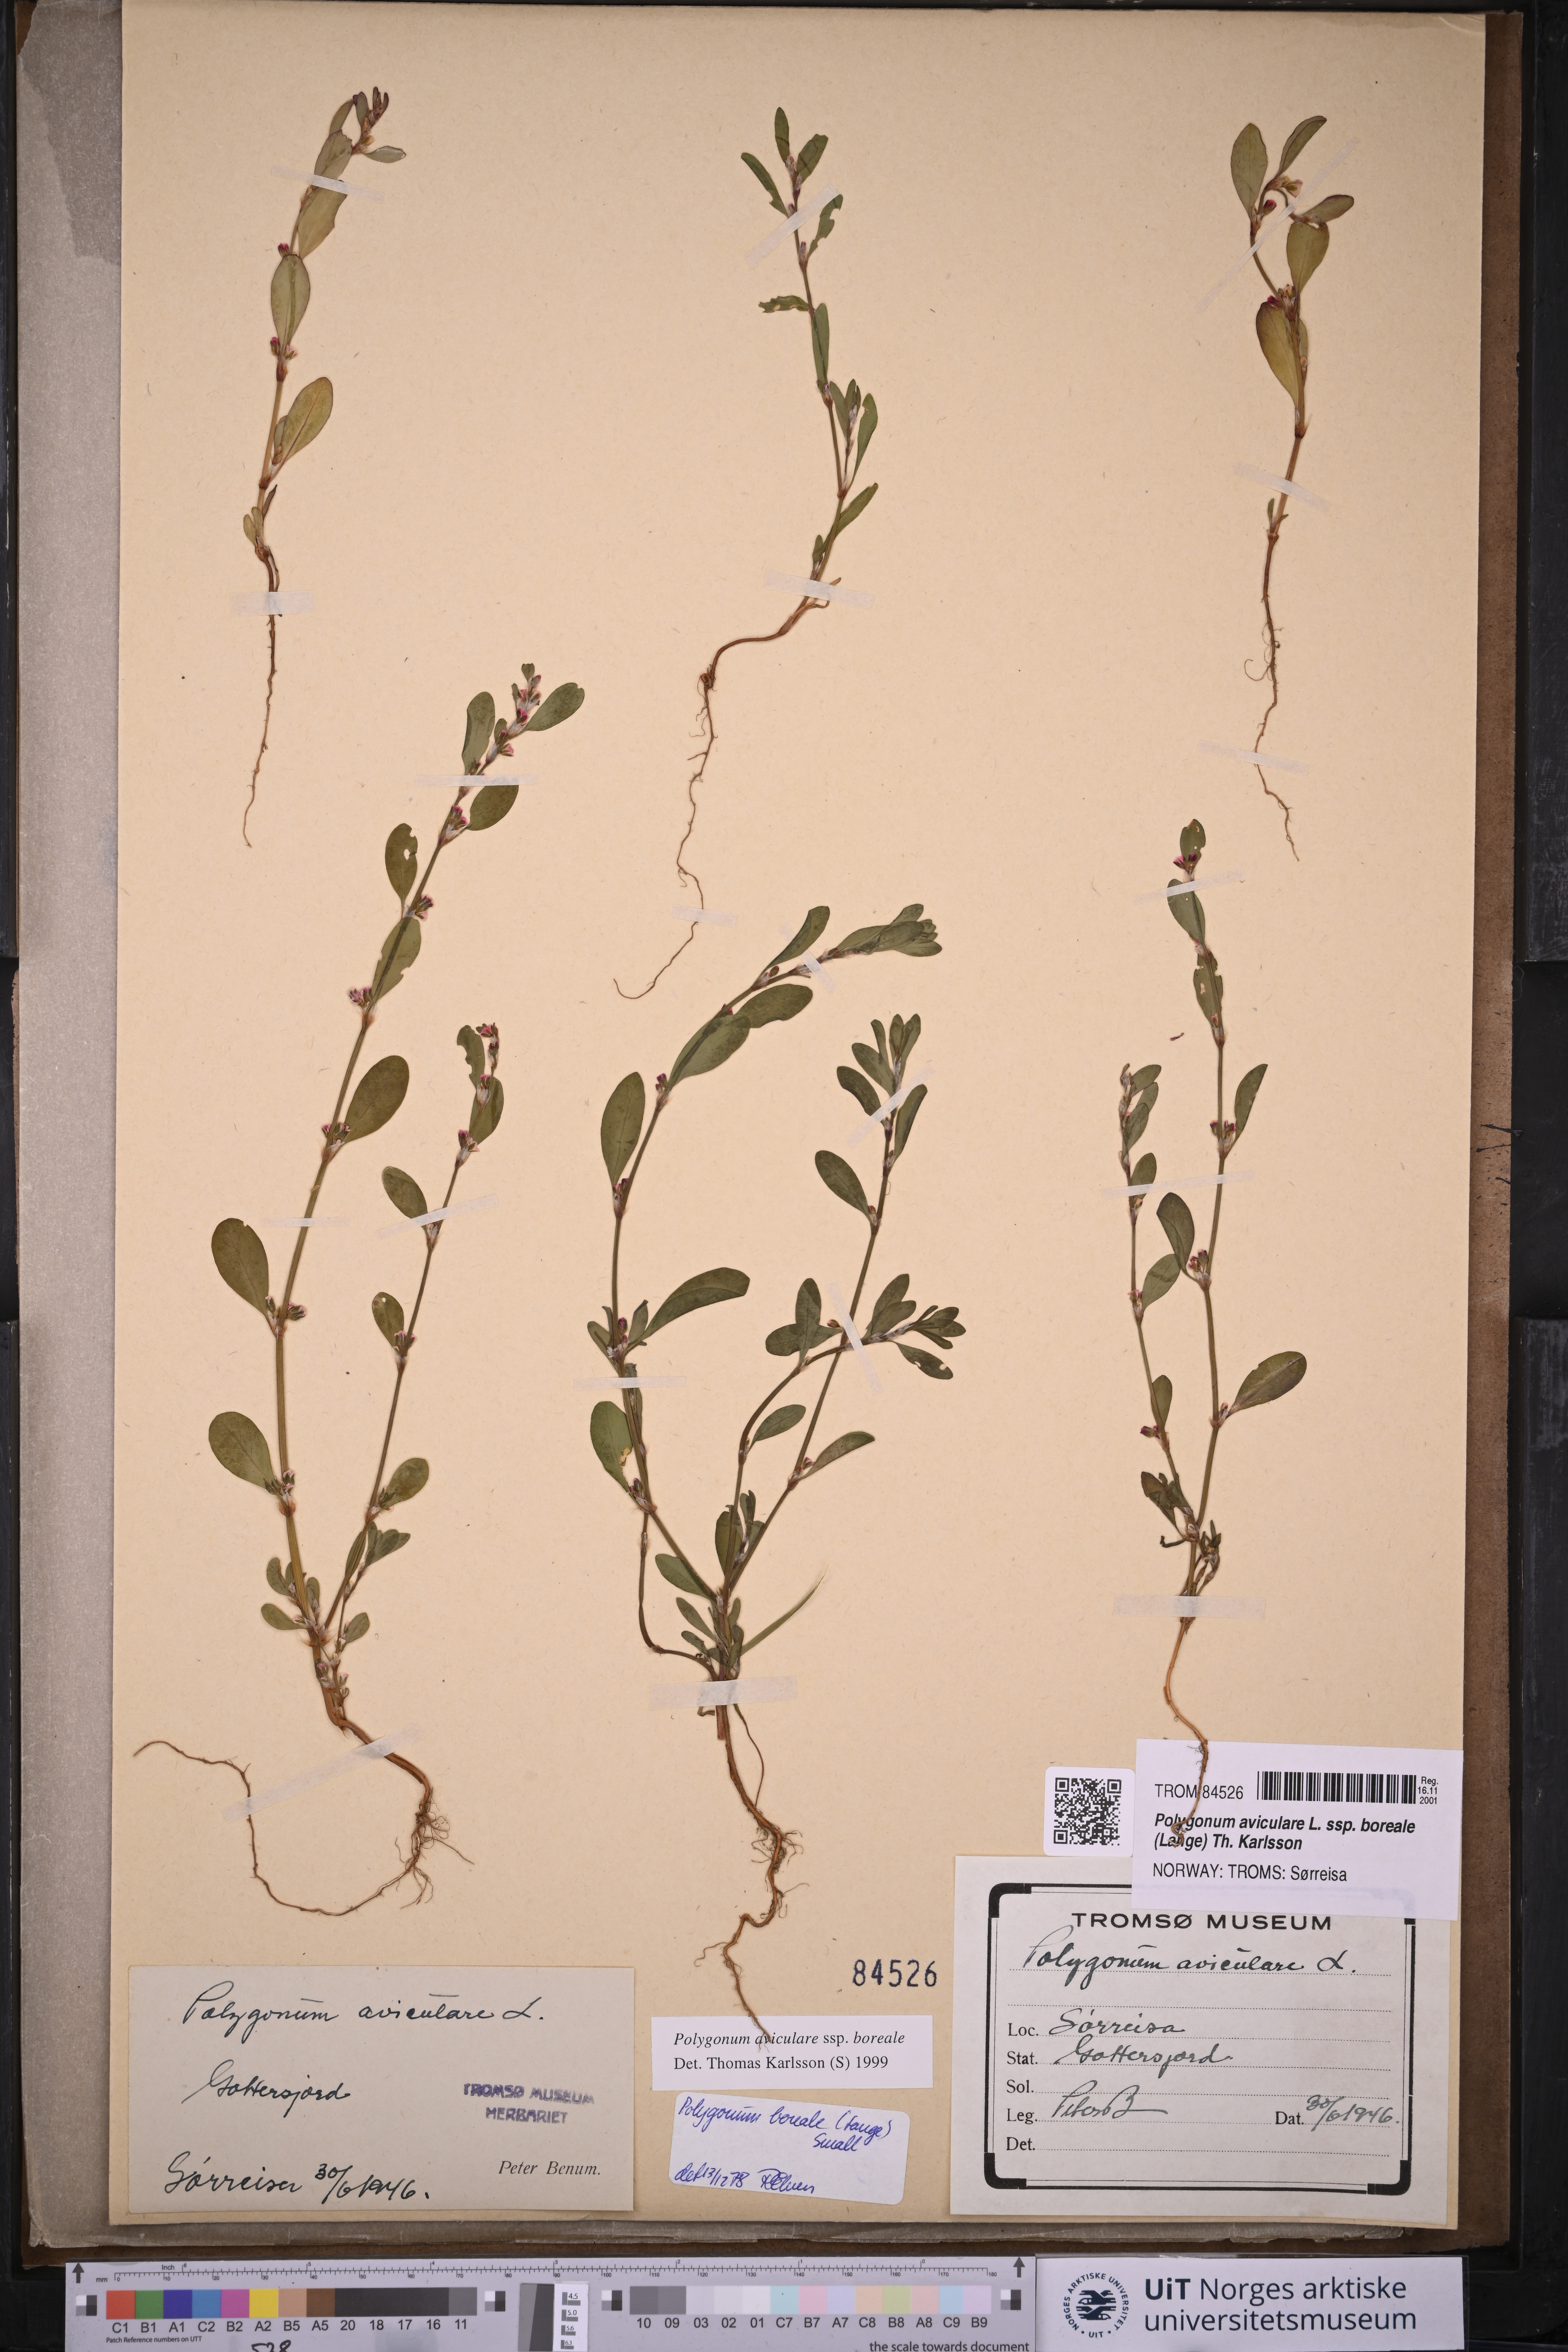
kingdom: Plantae
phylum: Tracheophyta
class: Magnoliopsida
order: Caryophyllales
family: Polygonaceae
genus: Polygonum
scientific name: Polygonum boreale
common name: Northern knotgrass
